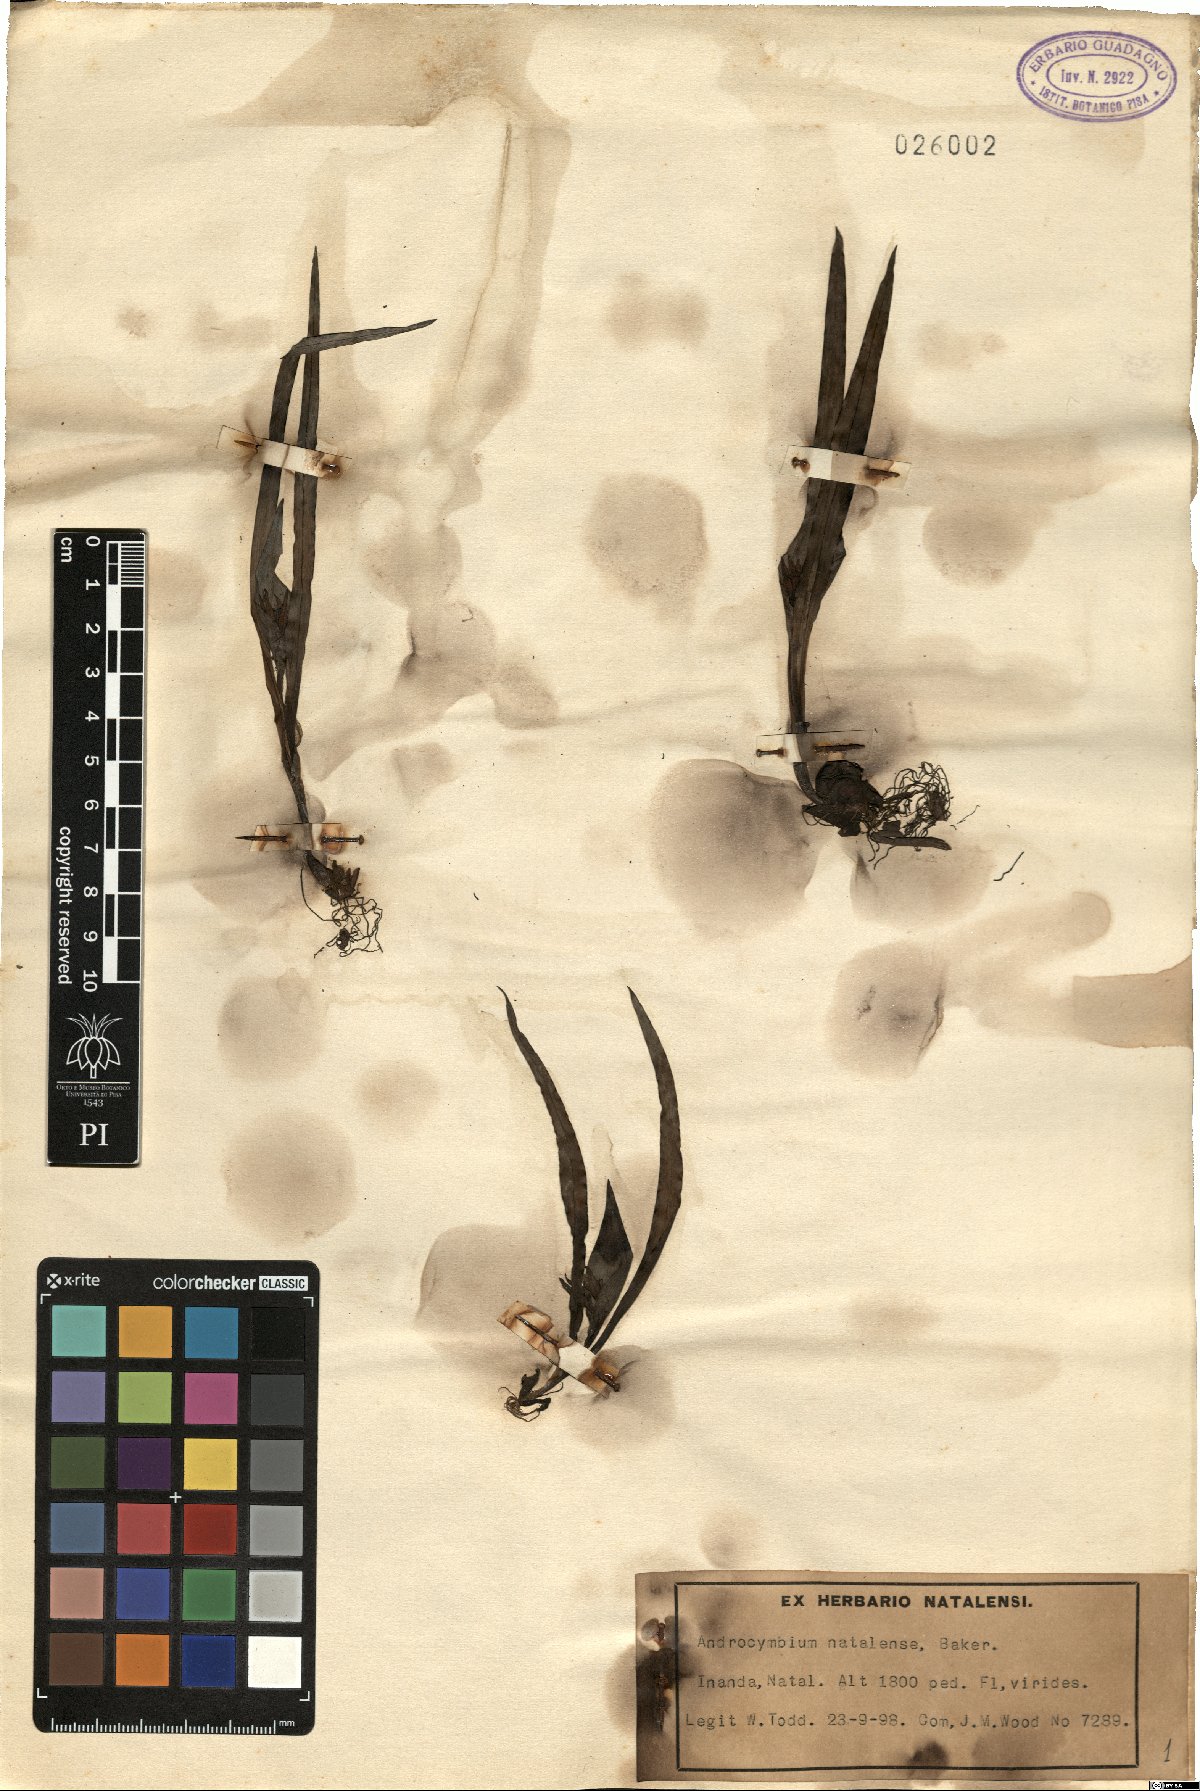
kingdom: Plantae
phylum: Tracheophyta
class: Liliopsida
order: Liliales
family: Colchicaceae
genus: Colchicum
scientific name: Colchicum natalense
